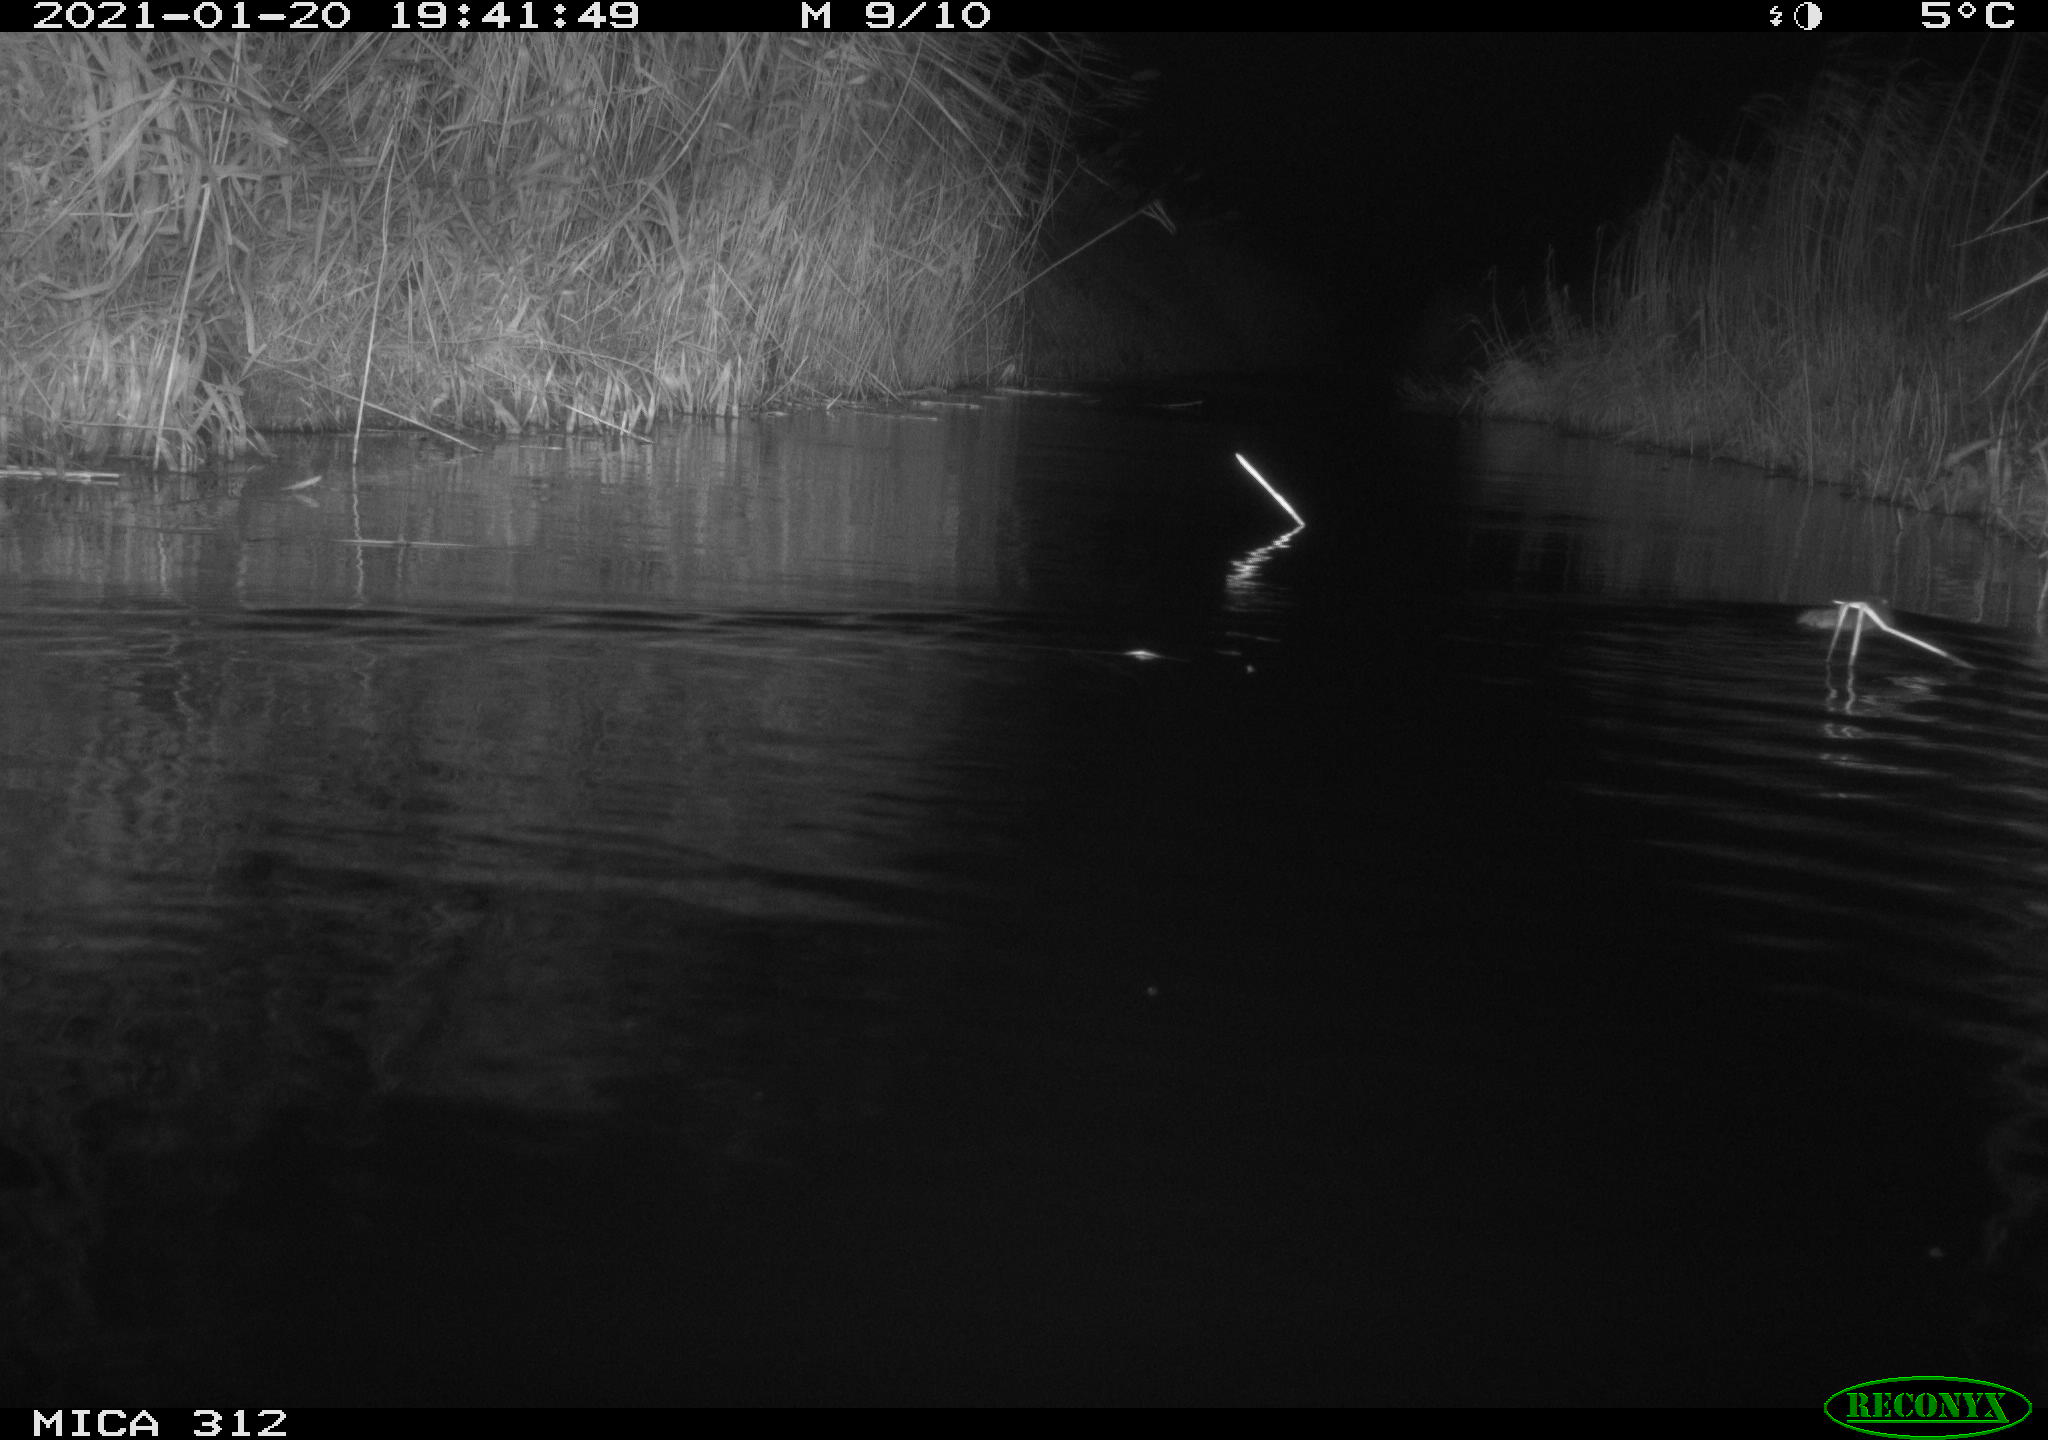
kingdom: Animalia
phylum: Chordata
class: Mammalia
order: Rodentia
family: Muridae
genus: Rattus
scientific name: Rattus norvegicus
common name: Brown rat
